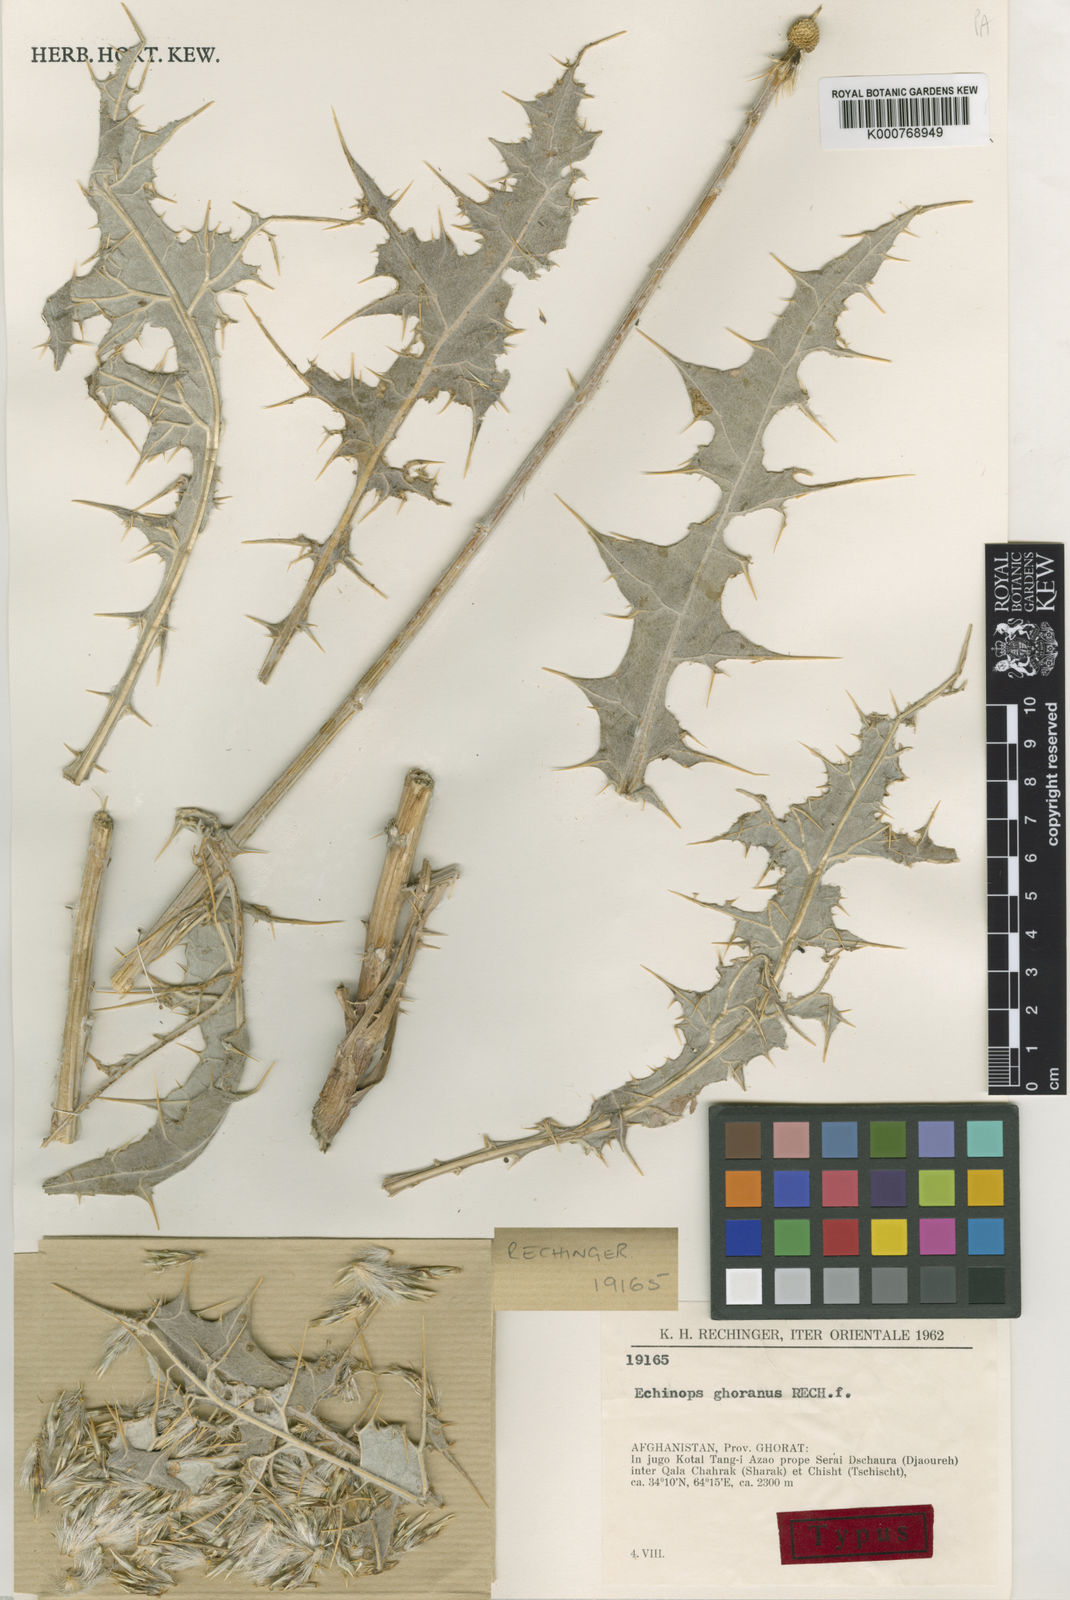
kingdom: Plantae
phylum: Tracheophyta
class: Magnoliopsida
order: Asterales
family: Asteraceae
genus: Echinops
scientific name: Echinops ghoranus
